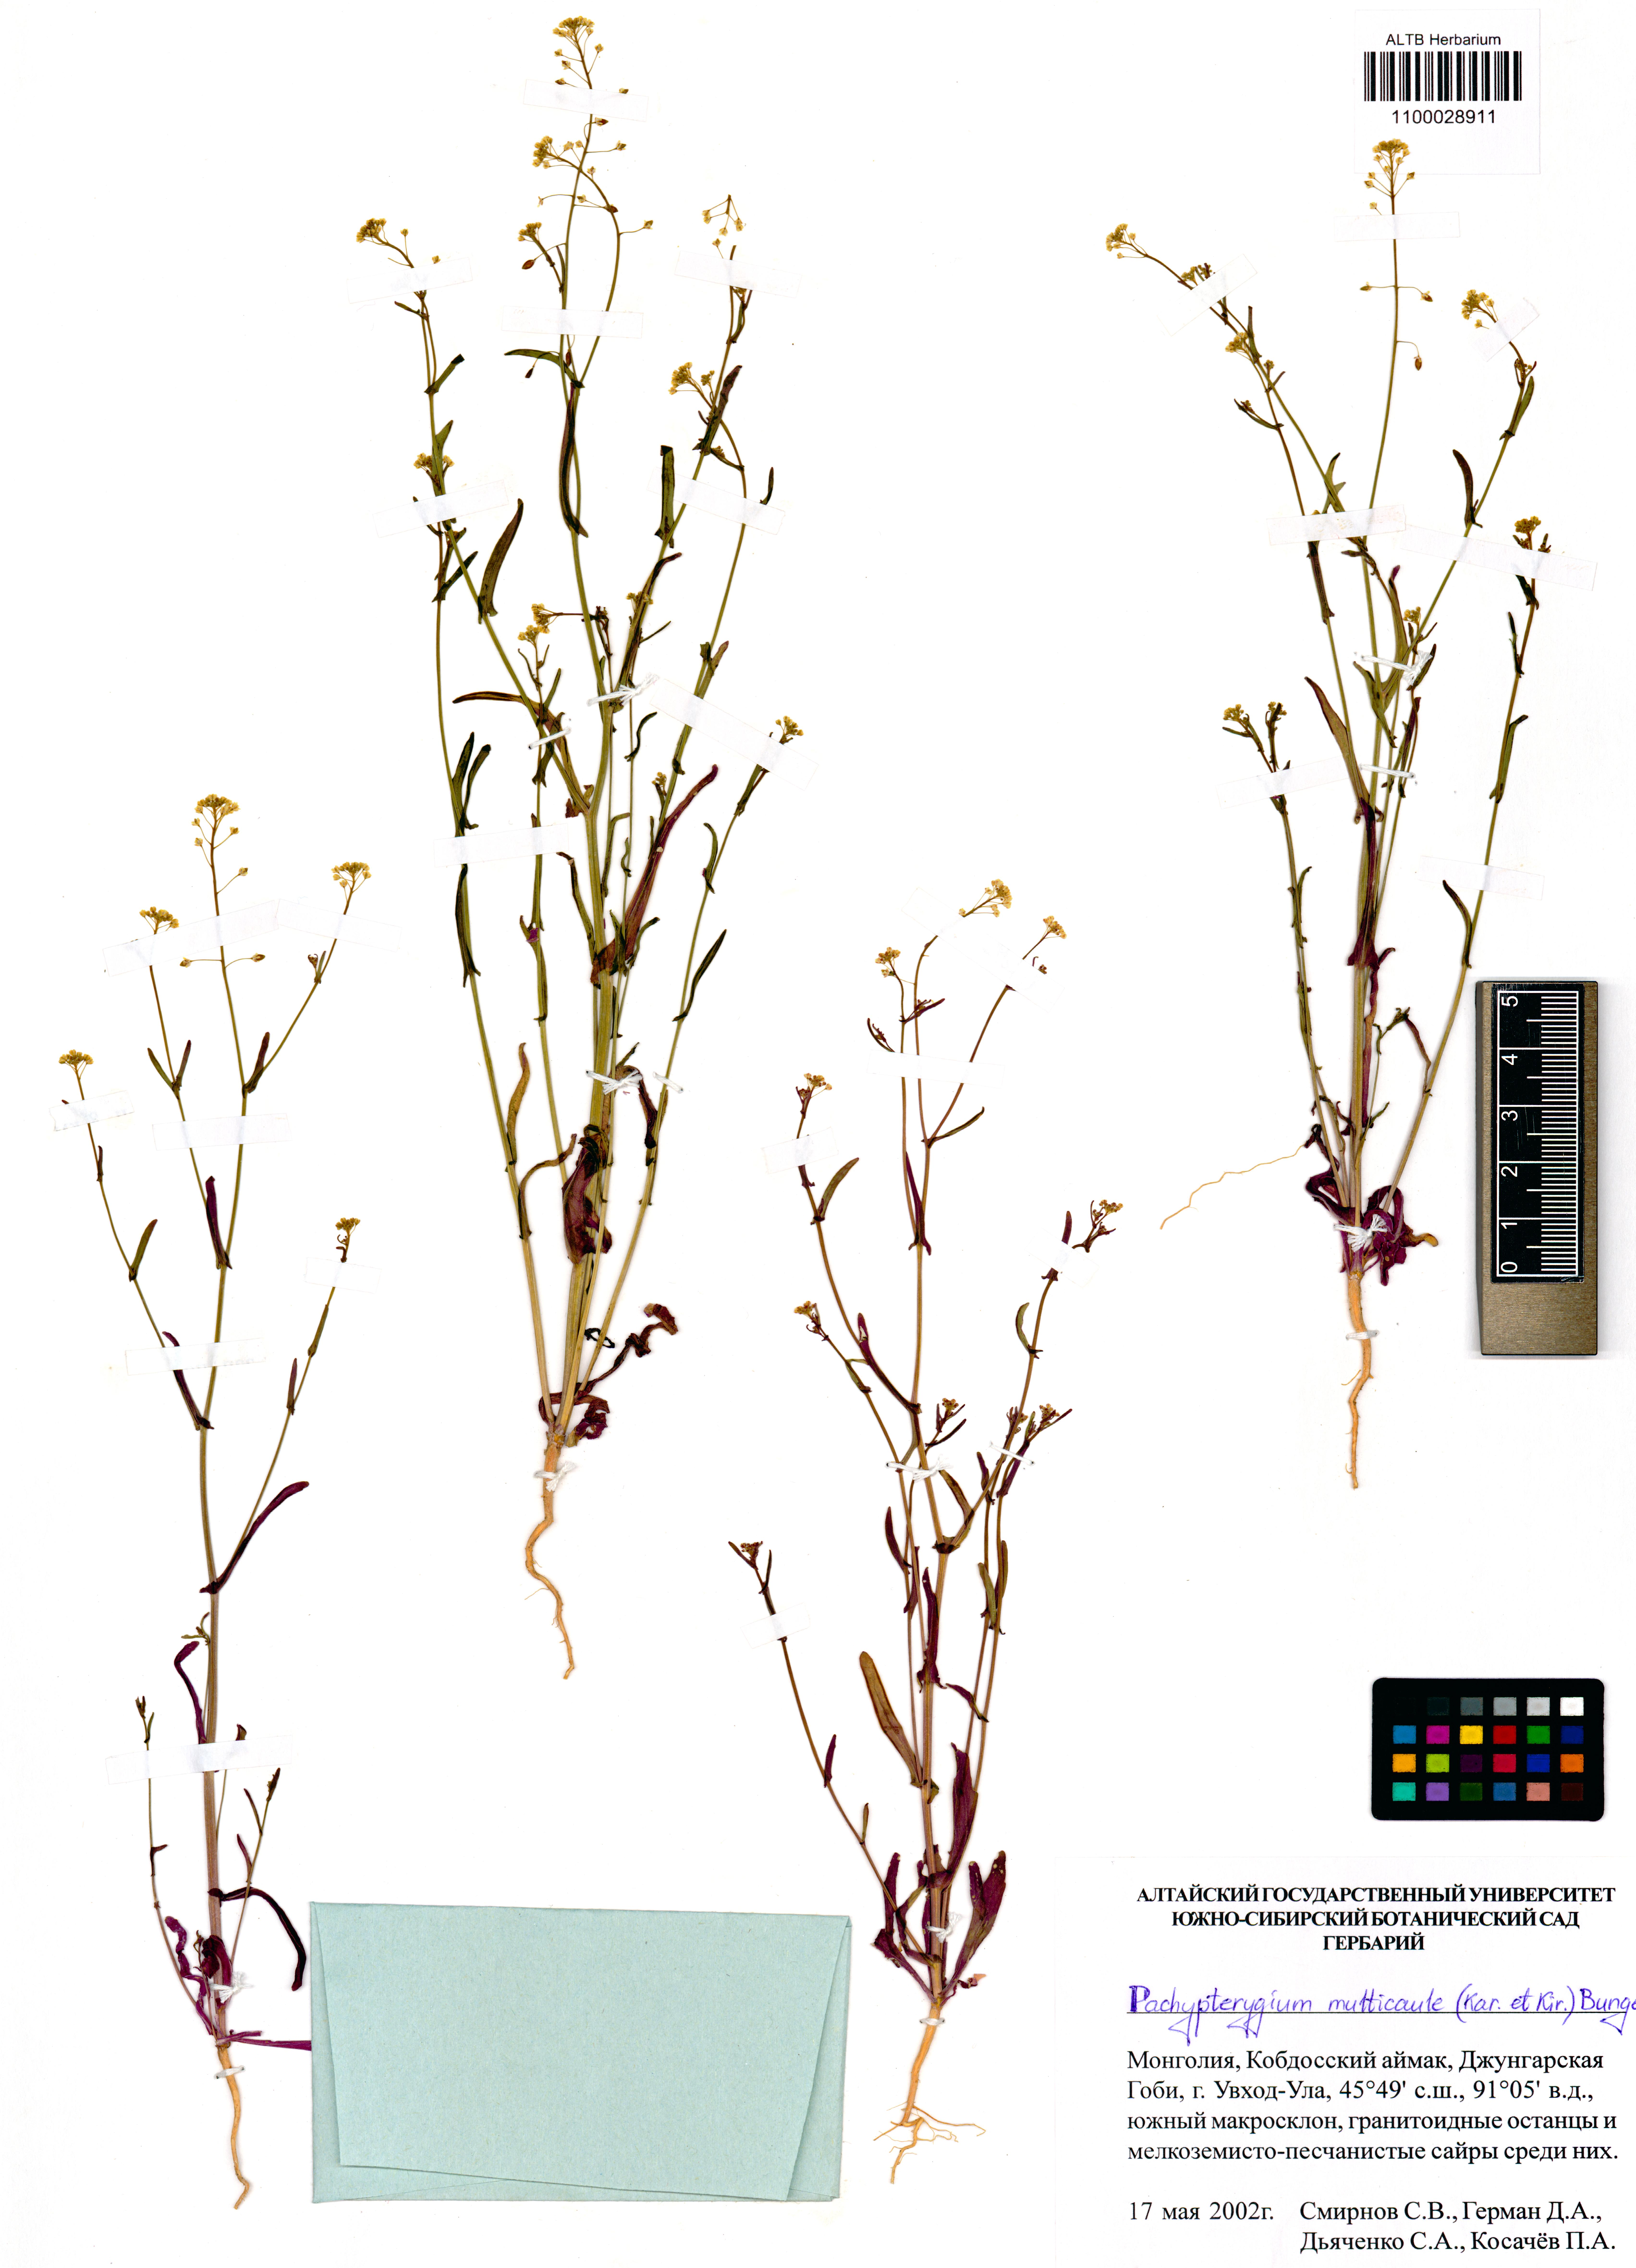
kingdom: Plantae
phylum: Tracheophyta
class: Magnoliopsida
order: Brassicales
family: Brassicaceae
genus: Isatis
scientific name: Isatis multicaulis
